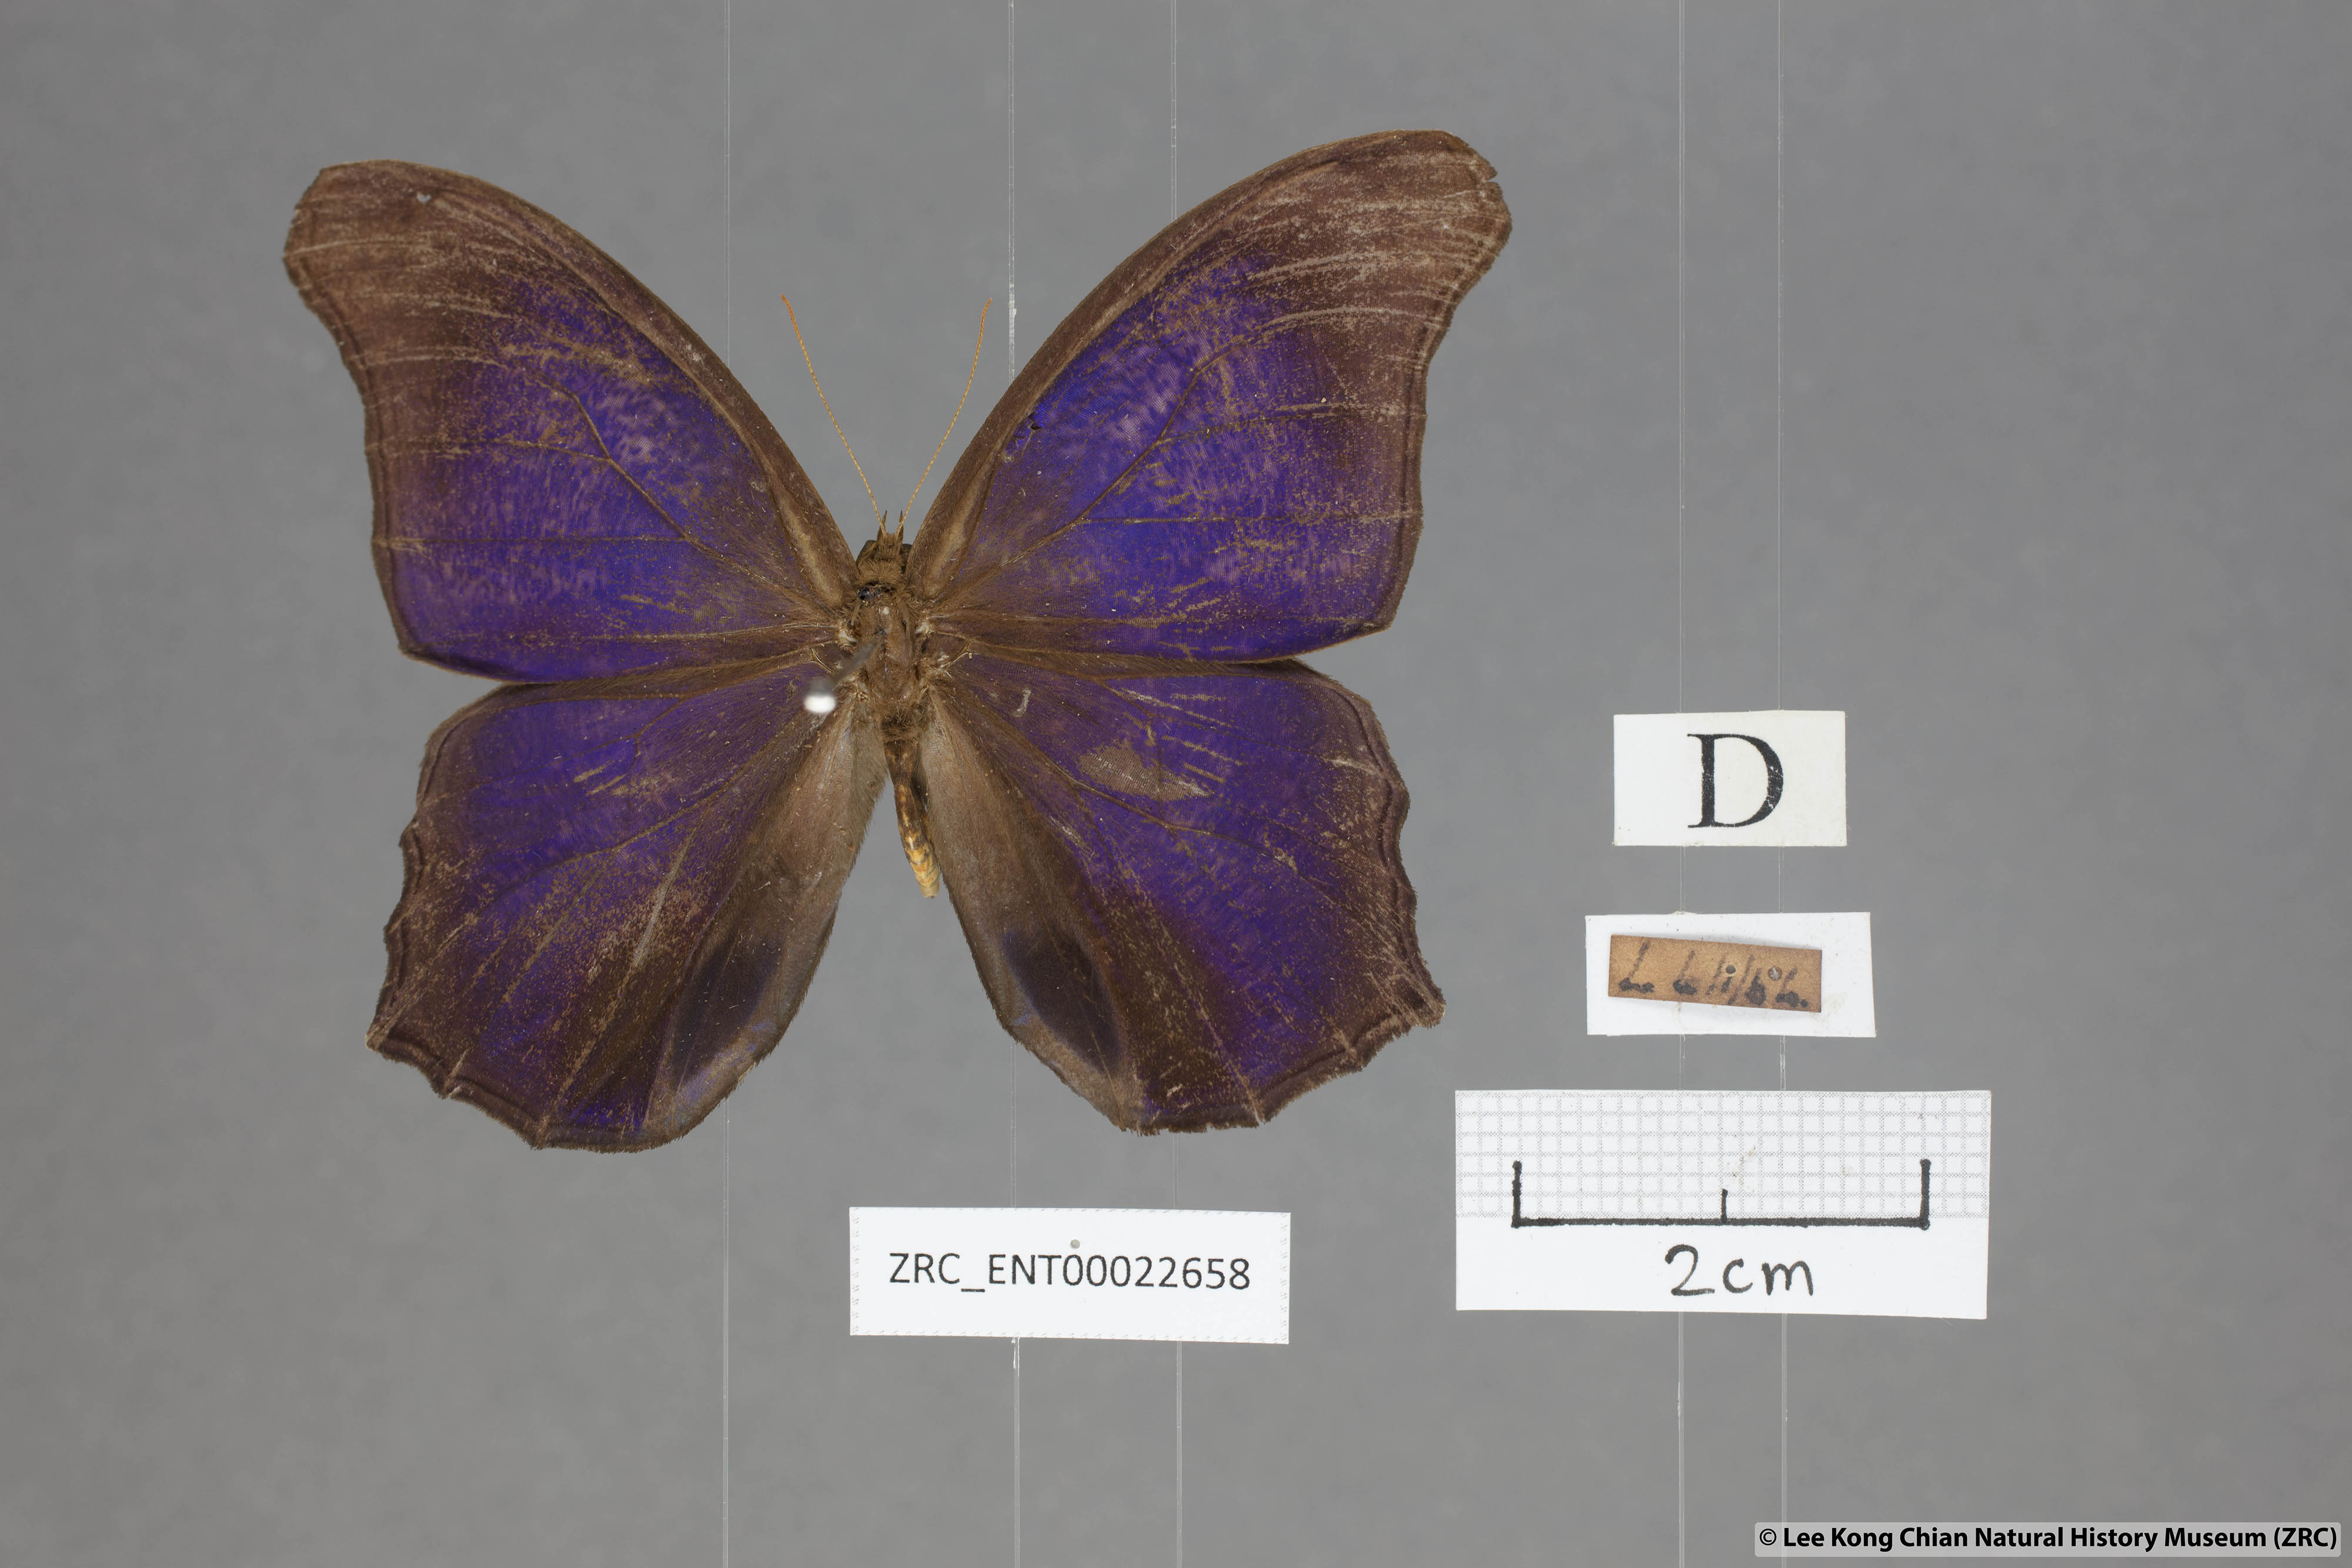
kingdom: Animalia
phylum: Arthropoda
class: Insecta
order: Lepidoptera
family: Nymphalidae
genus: Coelites
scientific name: Coelites epiminthia
